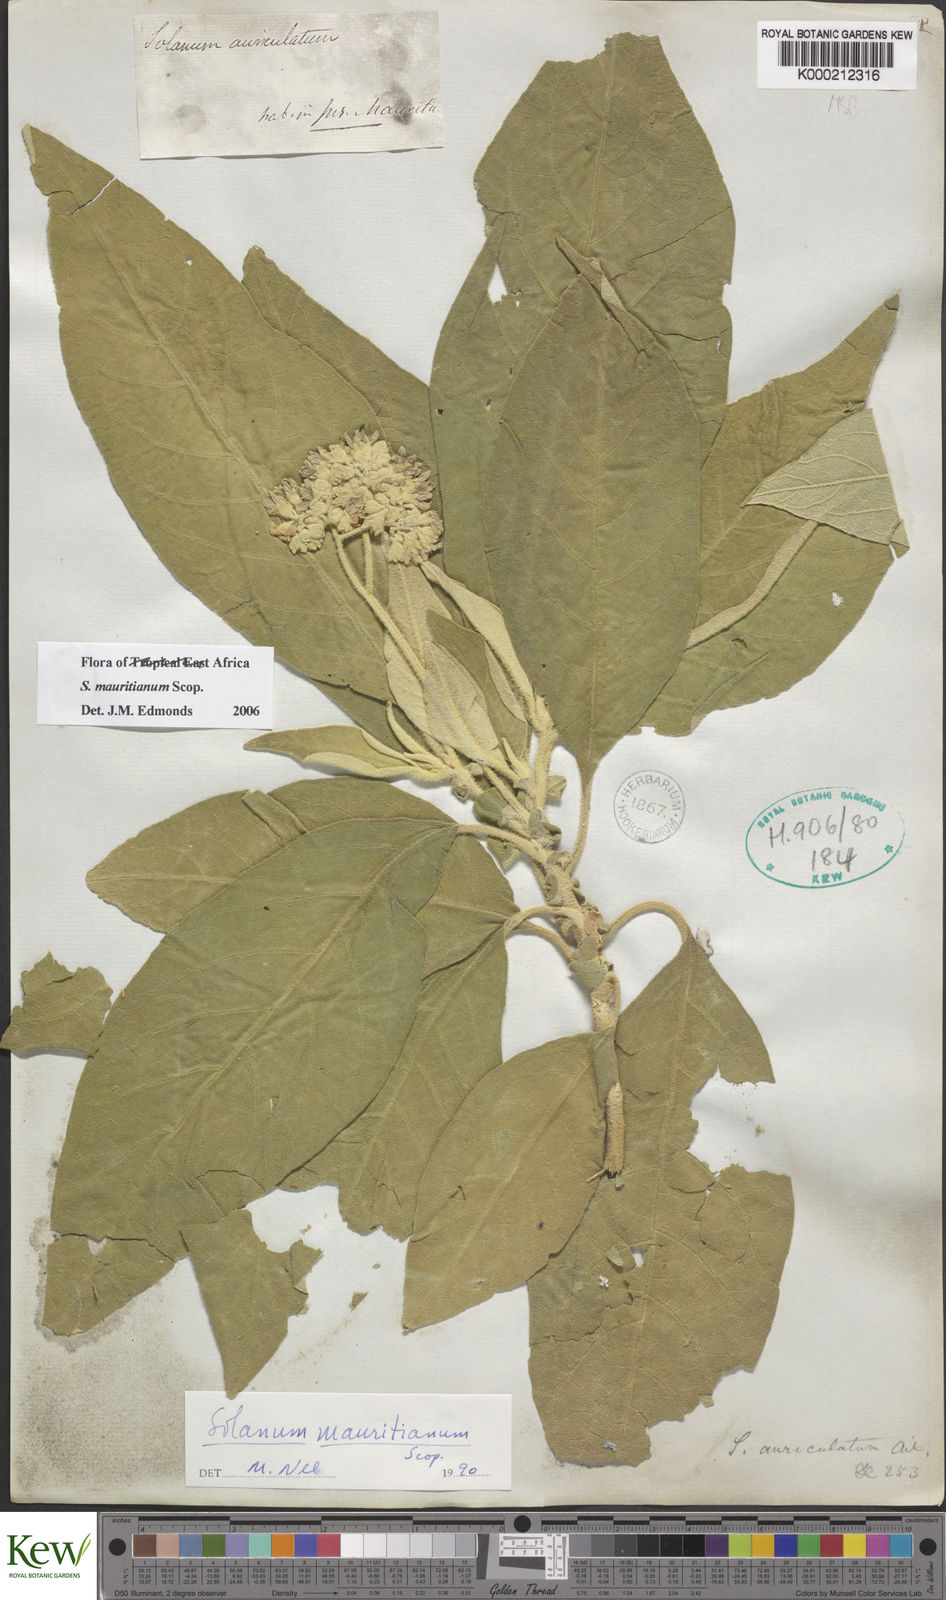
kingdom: Plantae
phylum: Tracheophyta
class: Magnoliopsida
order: Solanales
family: Solanaceae
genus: Solanum
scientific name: Solanum mauritianum
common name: Earleaf nightshade
